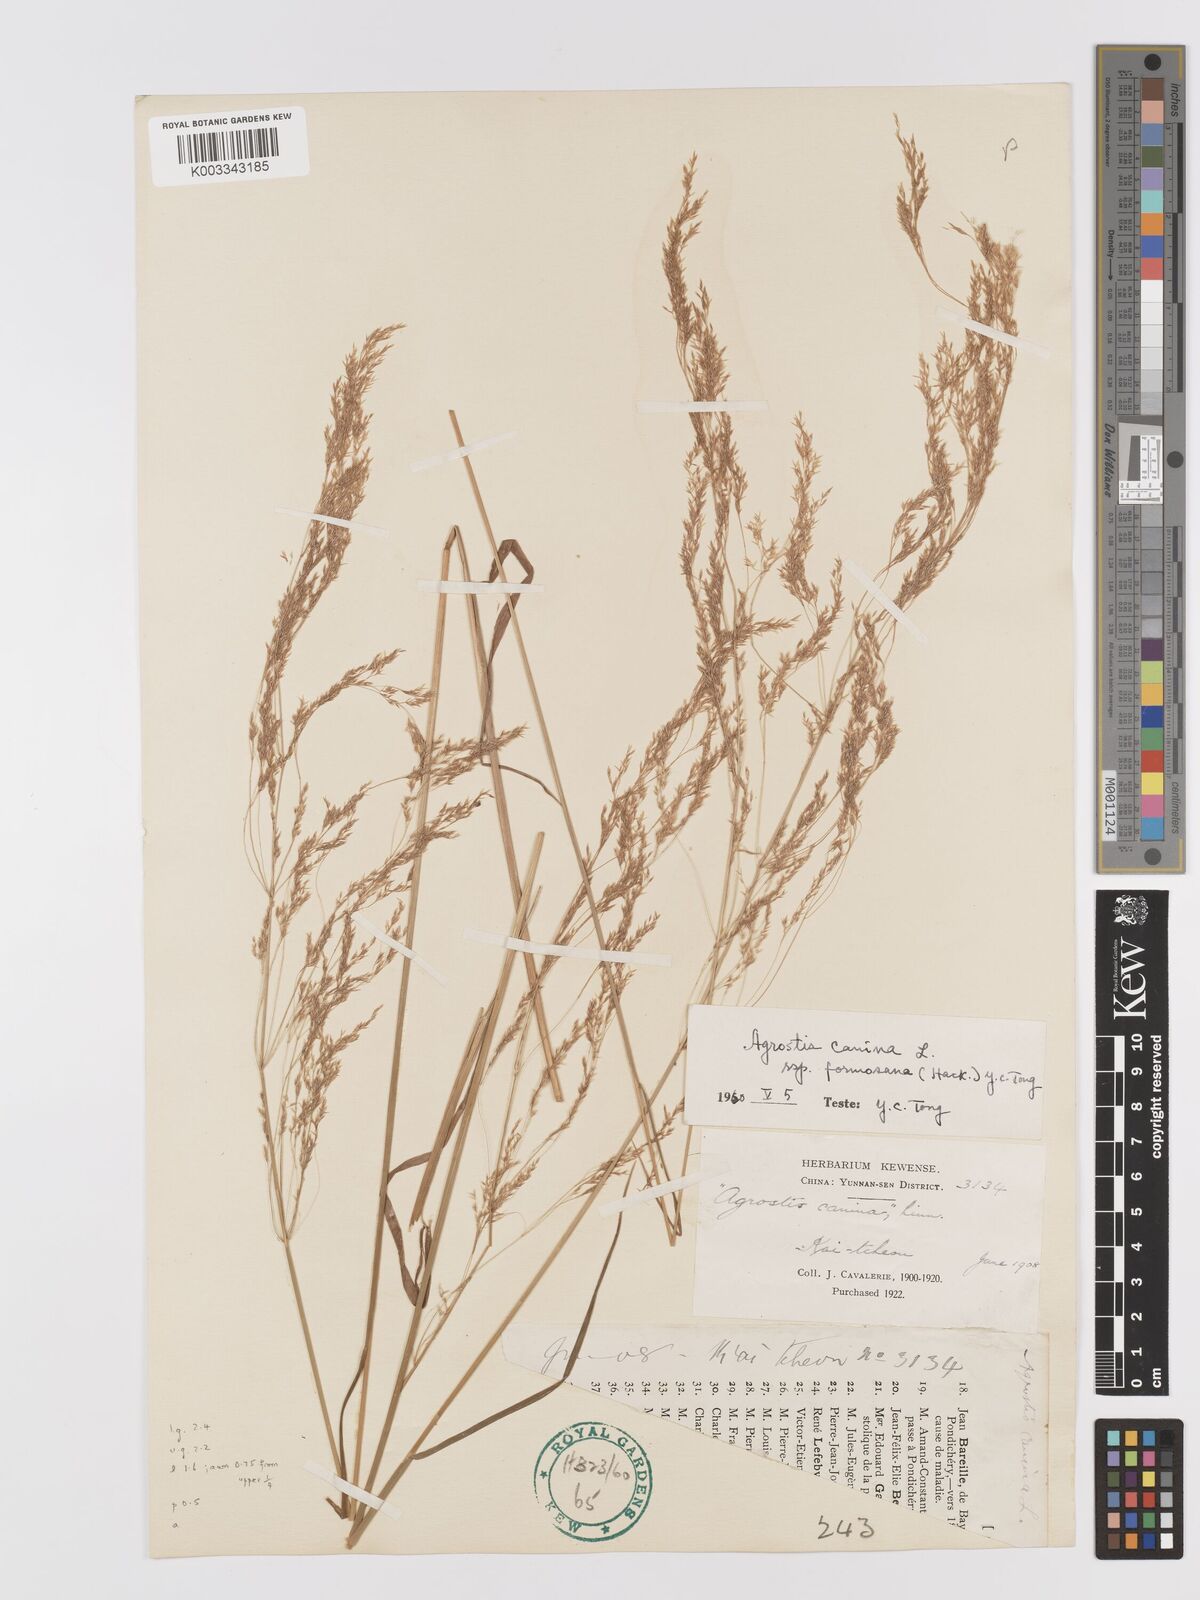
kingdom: Plantae
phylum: Tracheophyta
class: Liliopsida
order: Poales
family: Poaceae
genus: Agrostis
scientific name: Agrostis infirma
